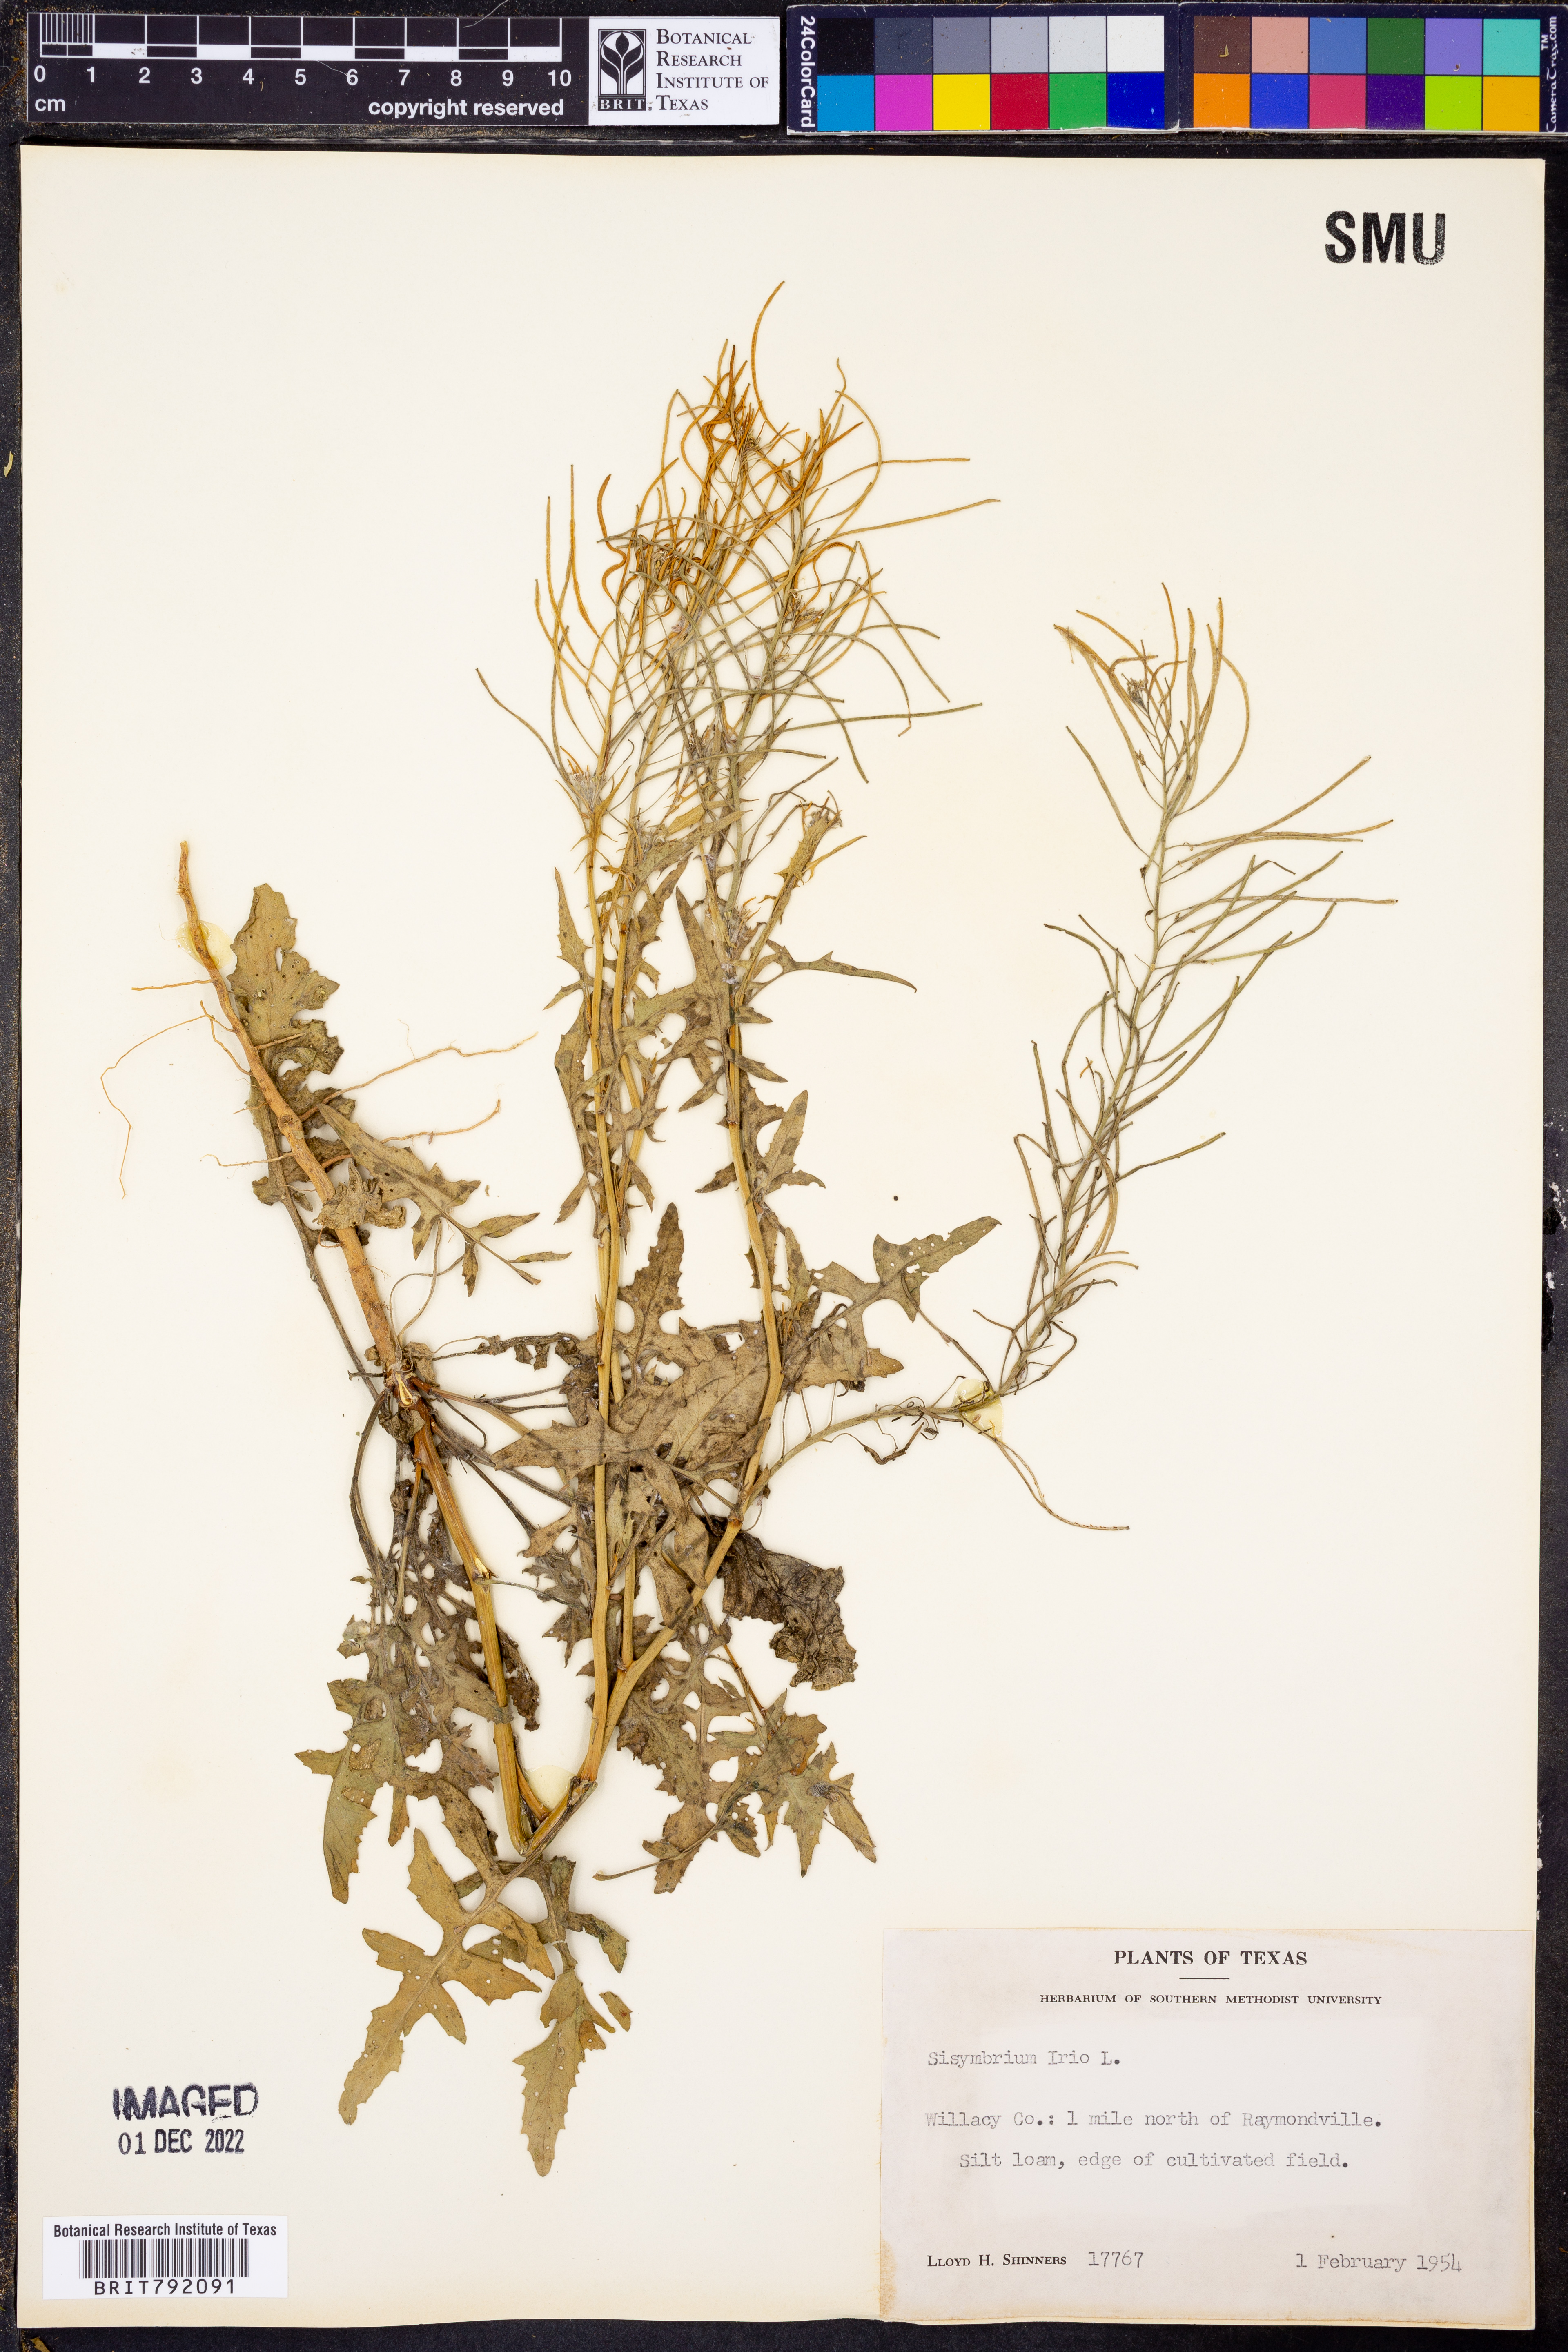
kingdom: Plantae
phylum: Tracheophyta
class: Magnoliopsida
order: Brassicales
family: Brassicaceae
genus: Sisymbrium
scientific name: Sisymbrium irio
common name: London rocket
